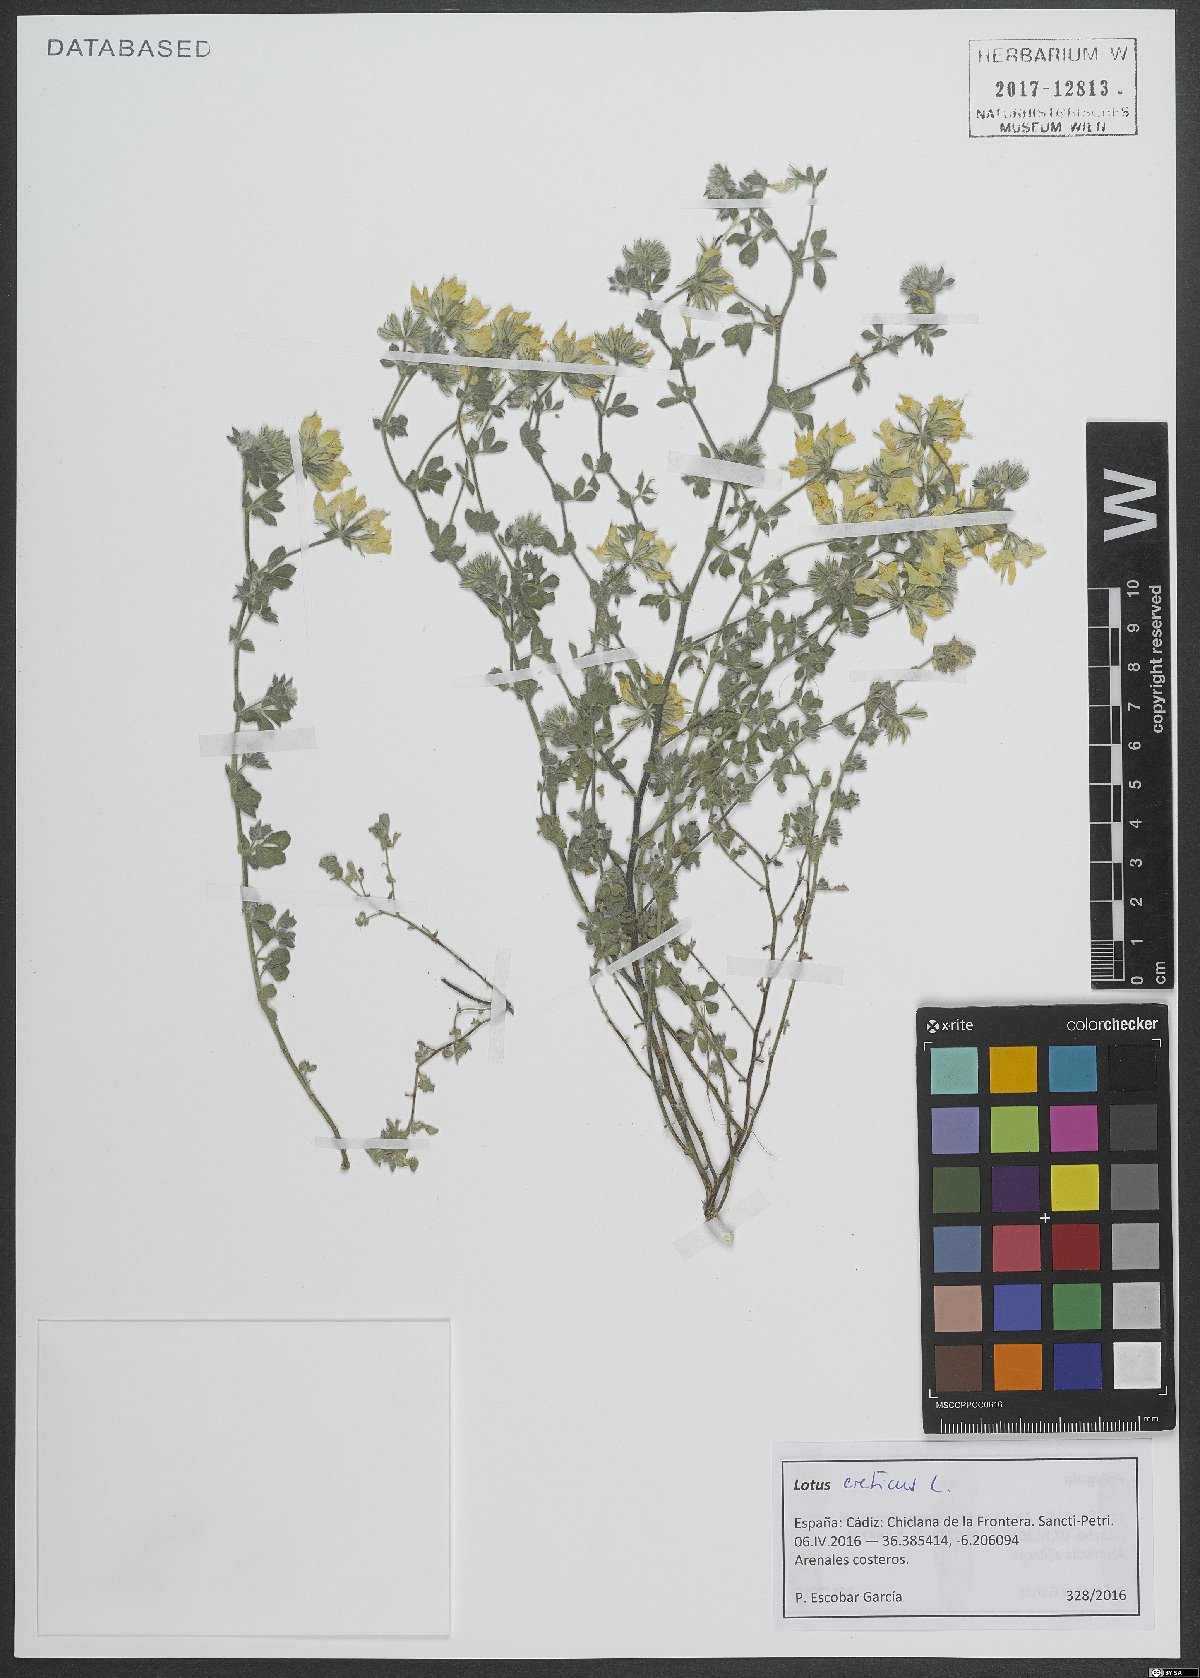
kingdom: Plantae
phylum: Tracheophyta
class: Magnoliopsida
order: Fabales
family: Fabaceae
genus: Lotus
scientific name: Lotus creticus
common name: Cretan bird's-foot trefoil
